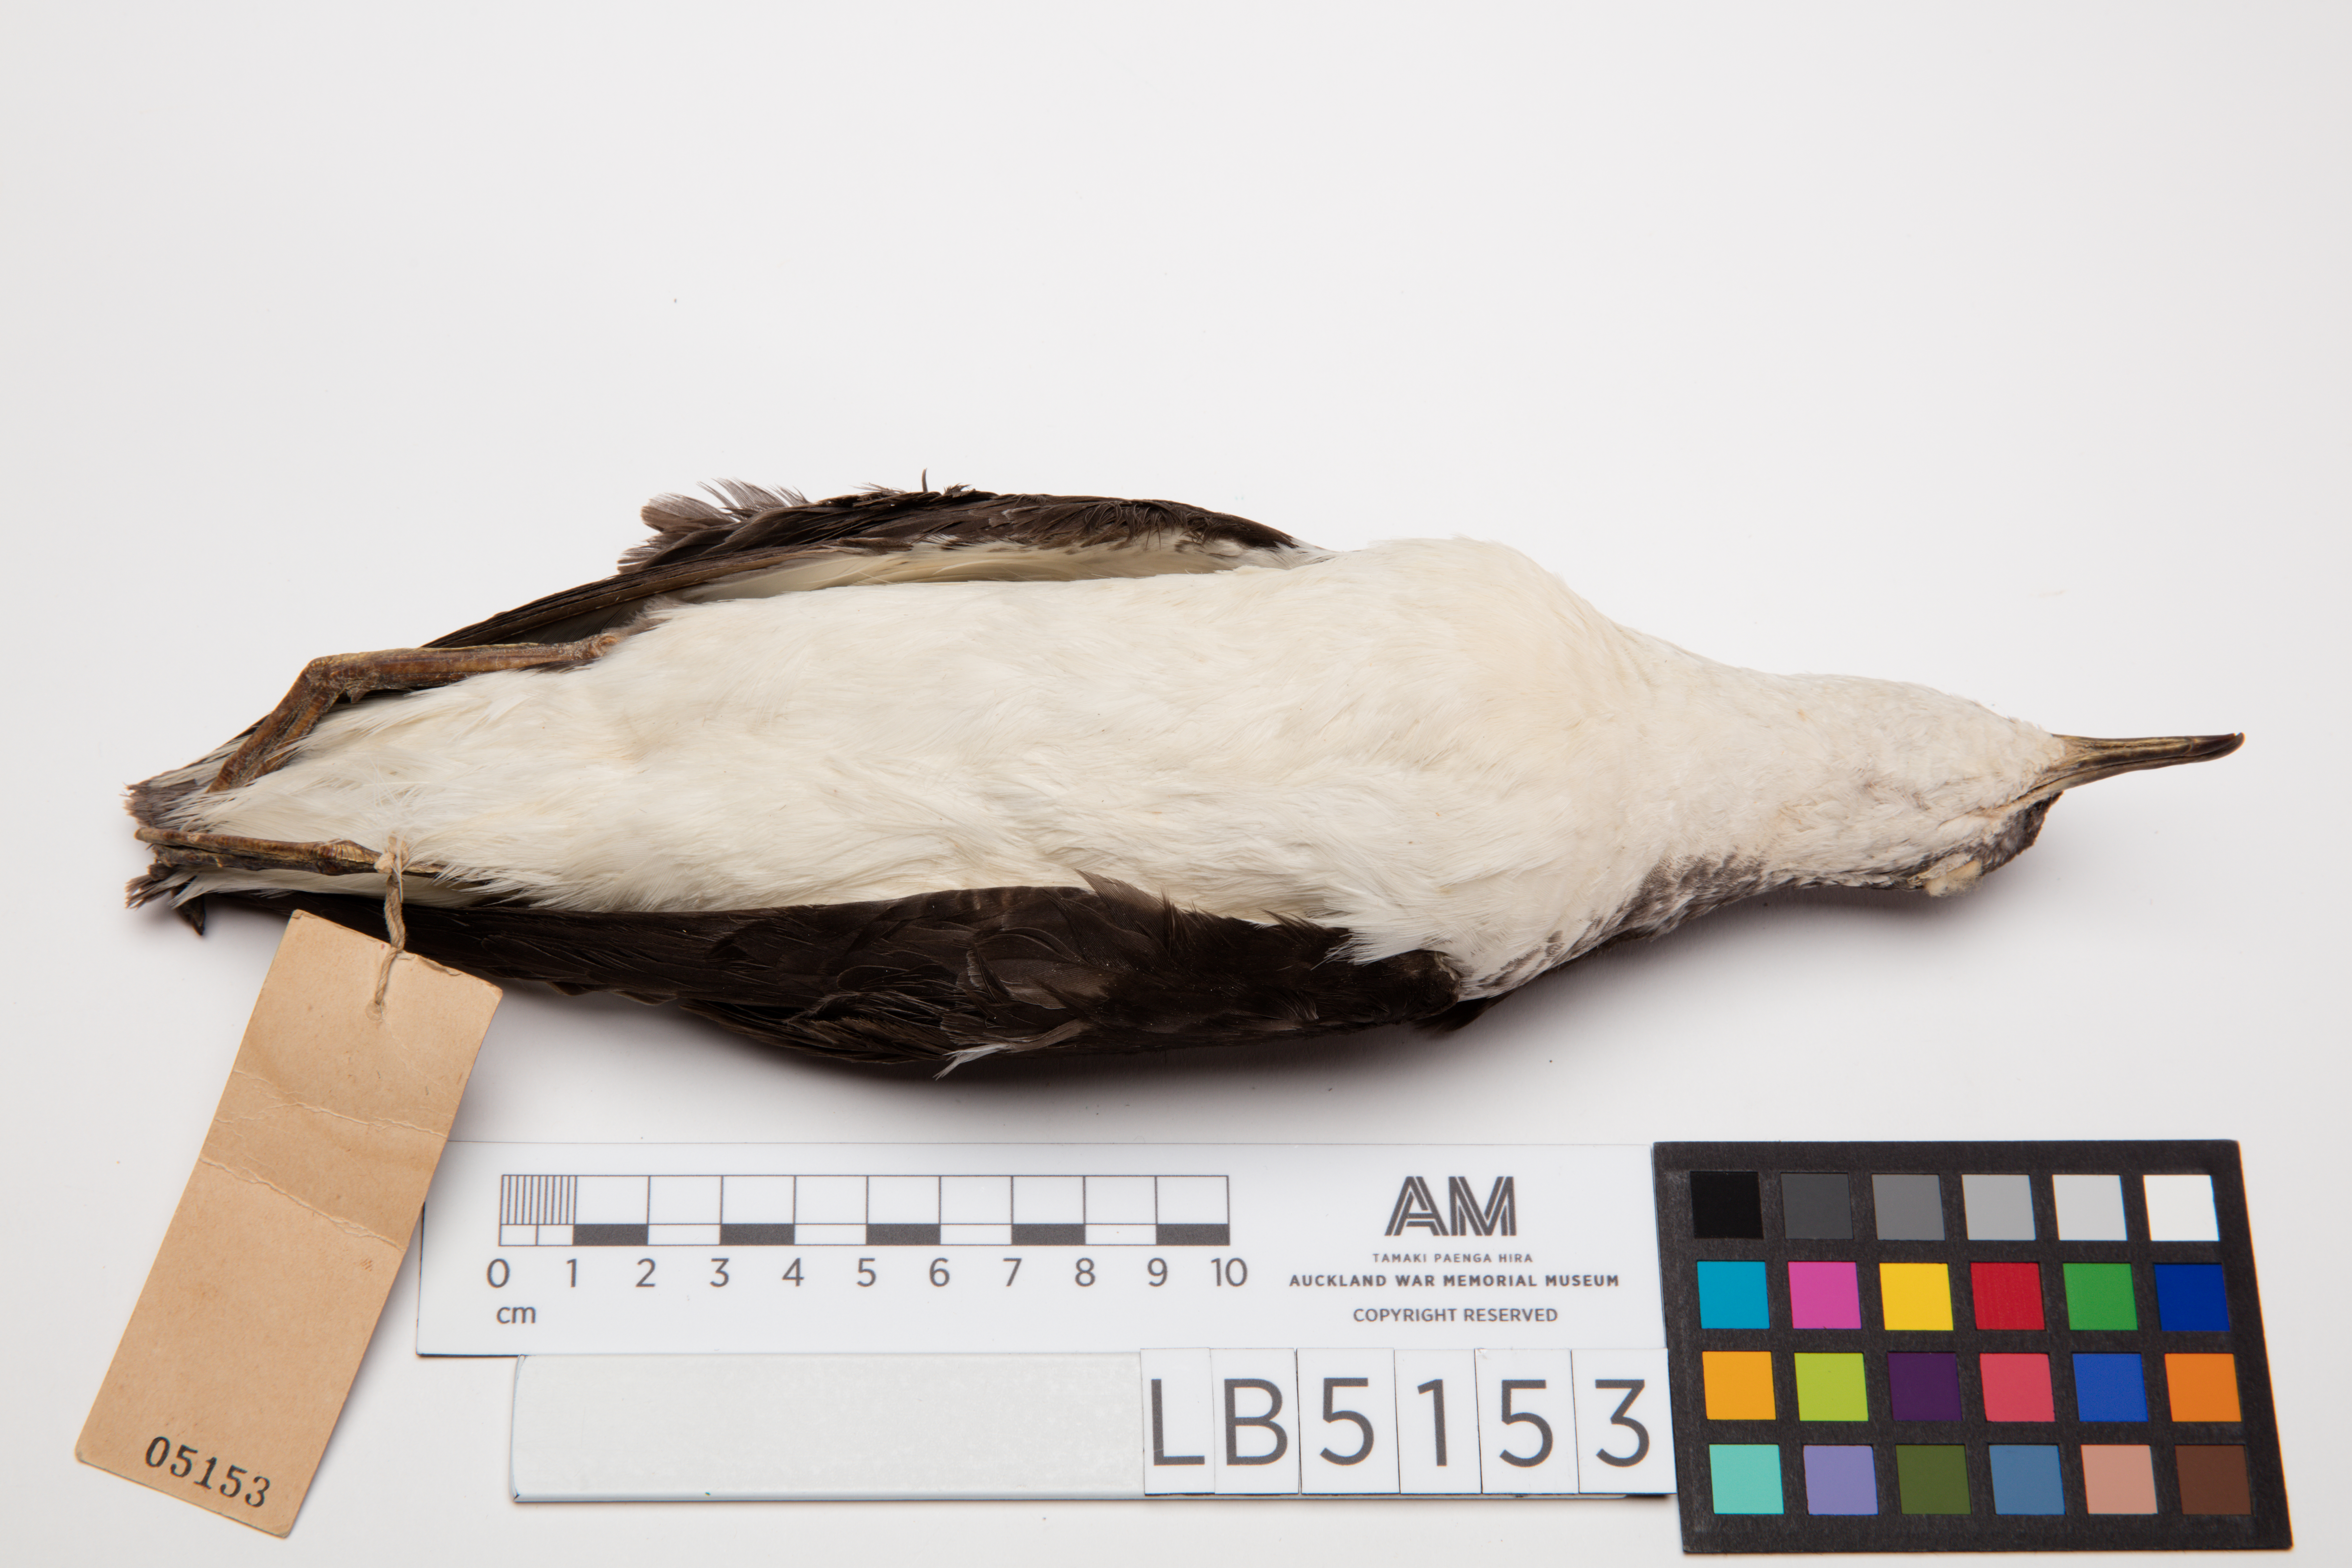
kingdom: Animalia
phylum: Chordata
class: Aves
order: Procellariiformes
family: Procellariidae
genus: Puffinus
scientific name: Puffinus assimilis
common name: Little shearwater
